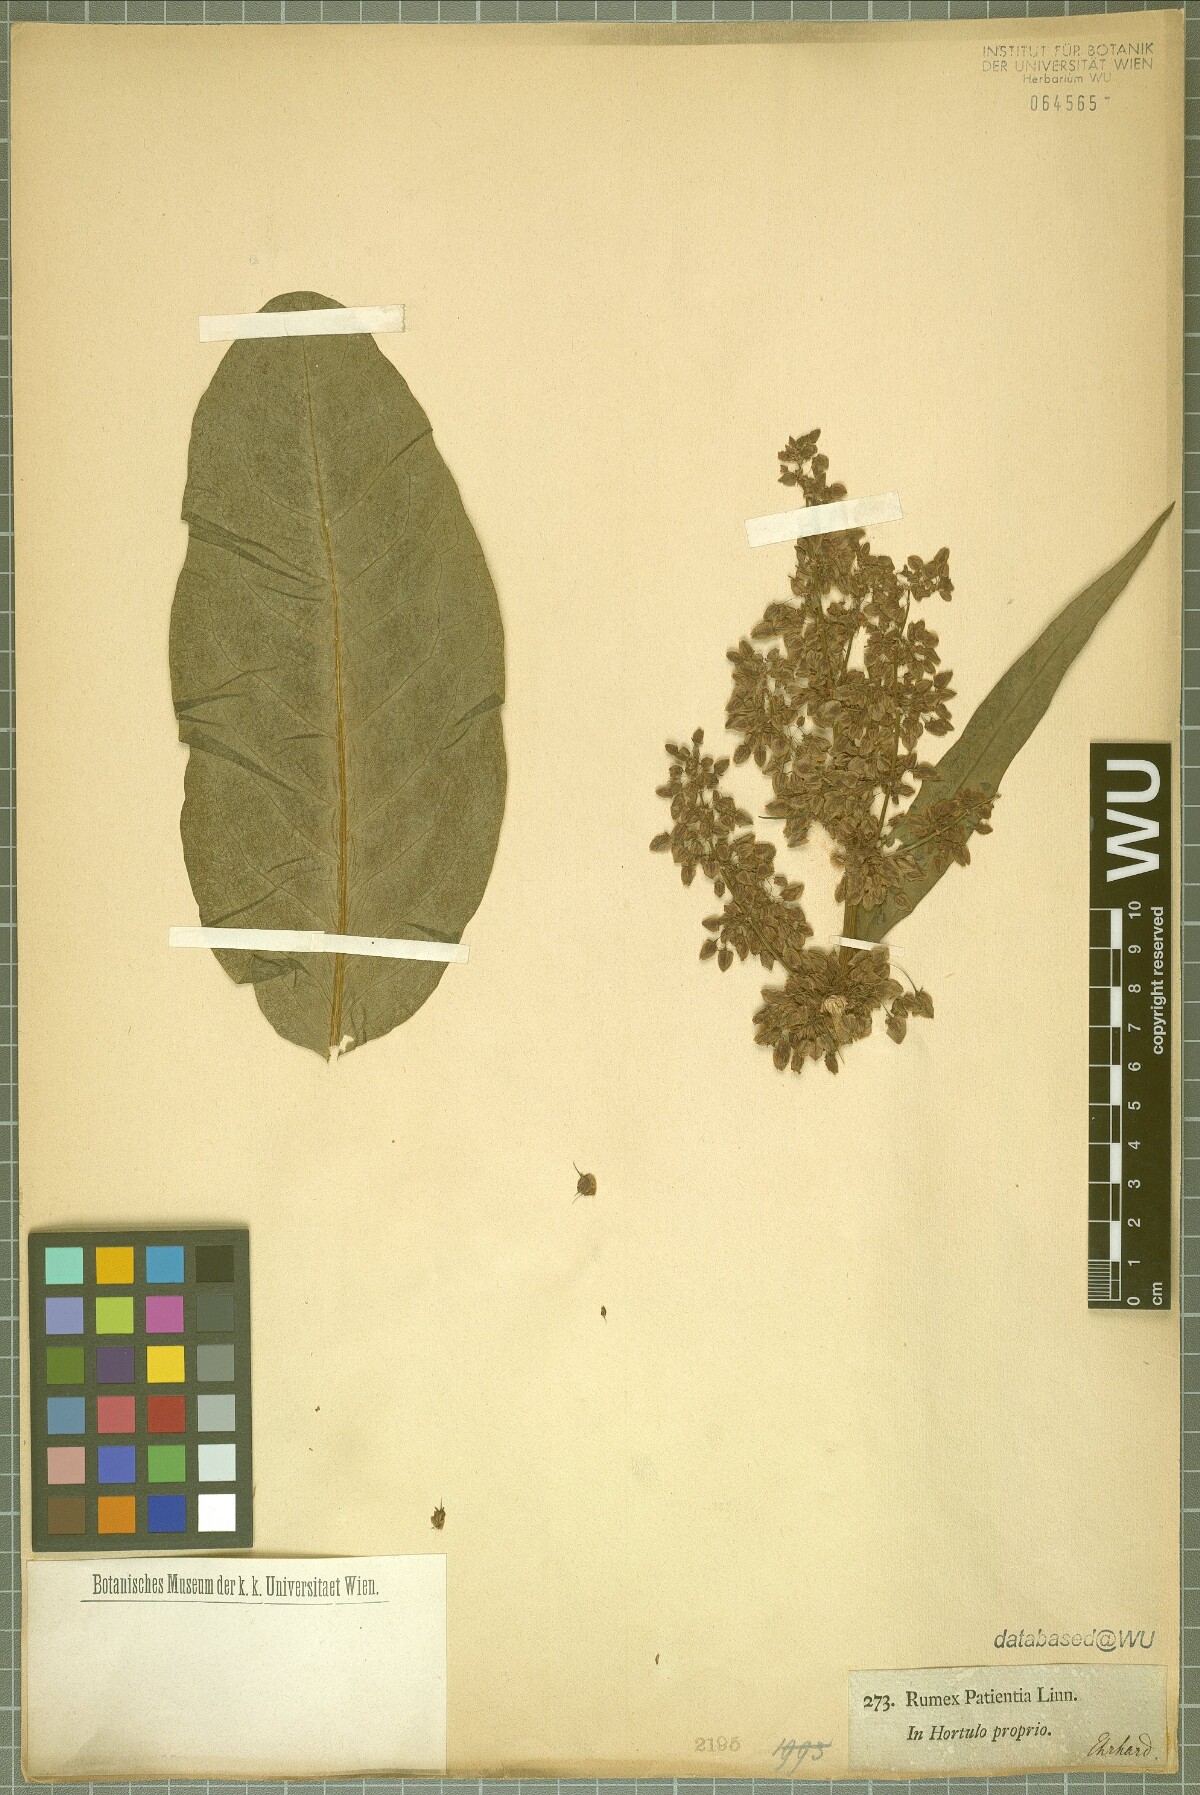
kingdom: Plantae
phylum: Tracheophyta
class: Magnoliopsida
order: Caryophyllales
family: Polygonaceae
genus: Rumex
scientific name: Rumex patientia
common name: Patience dock
